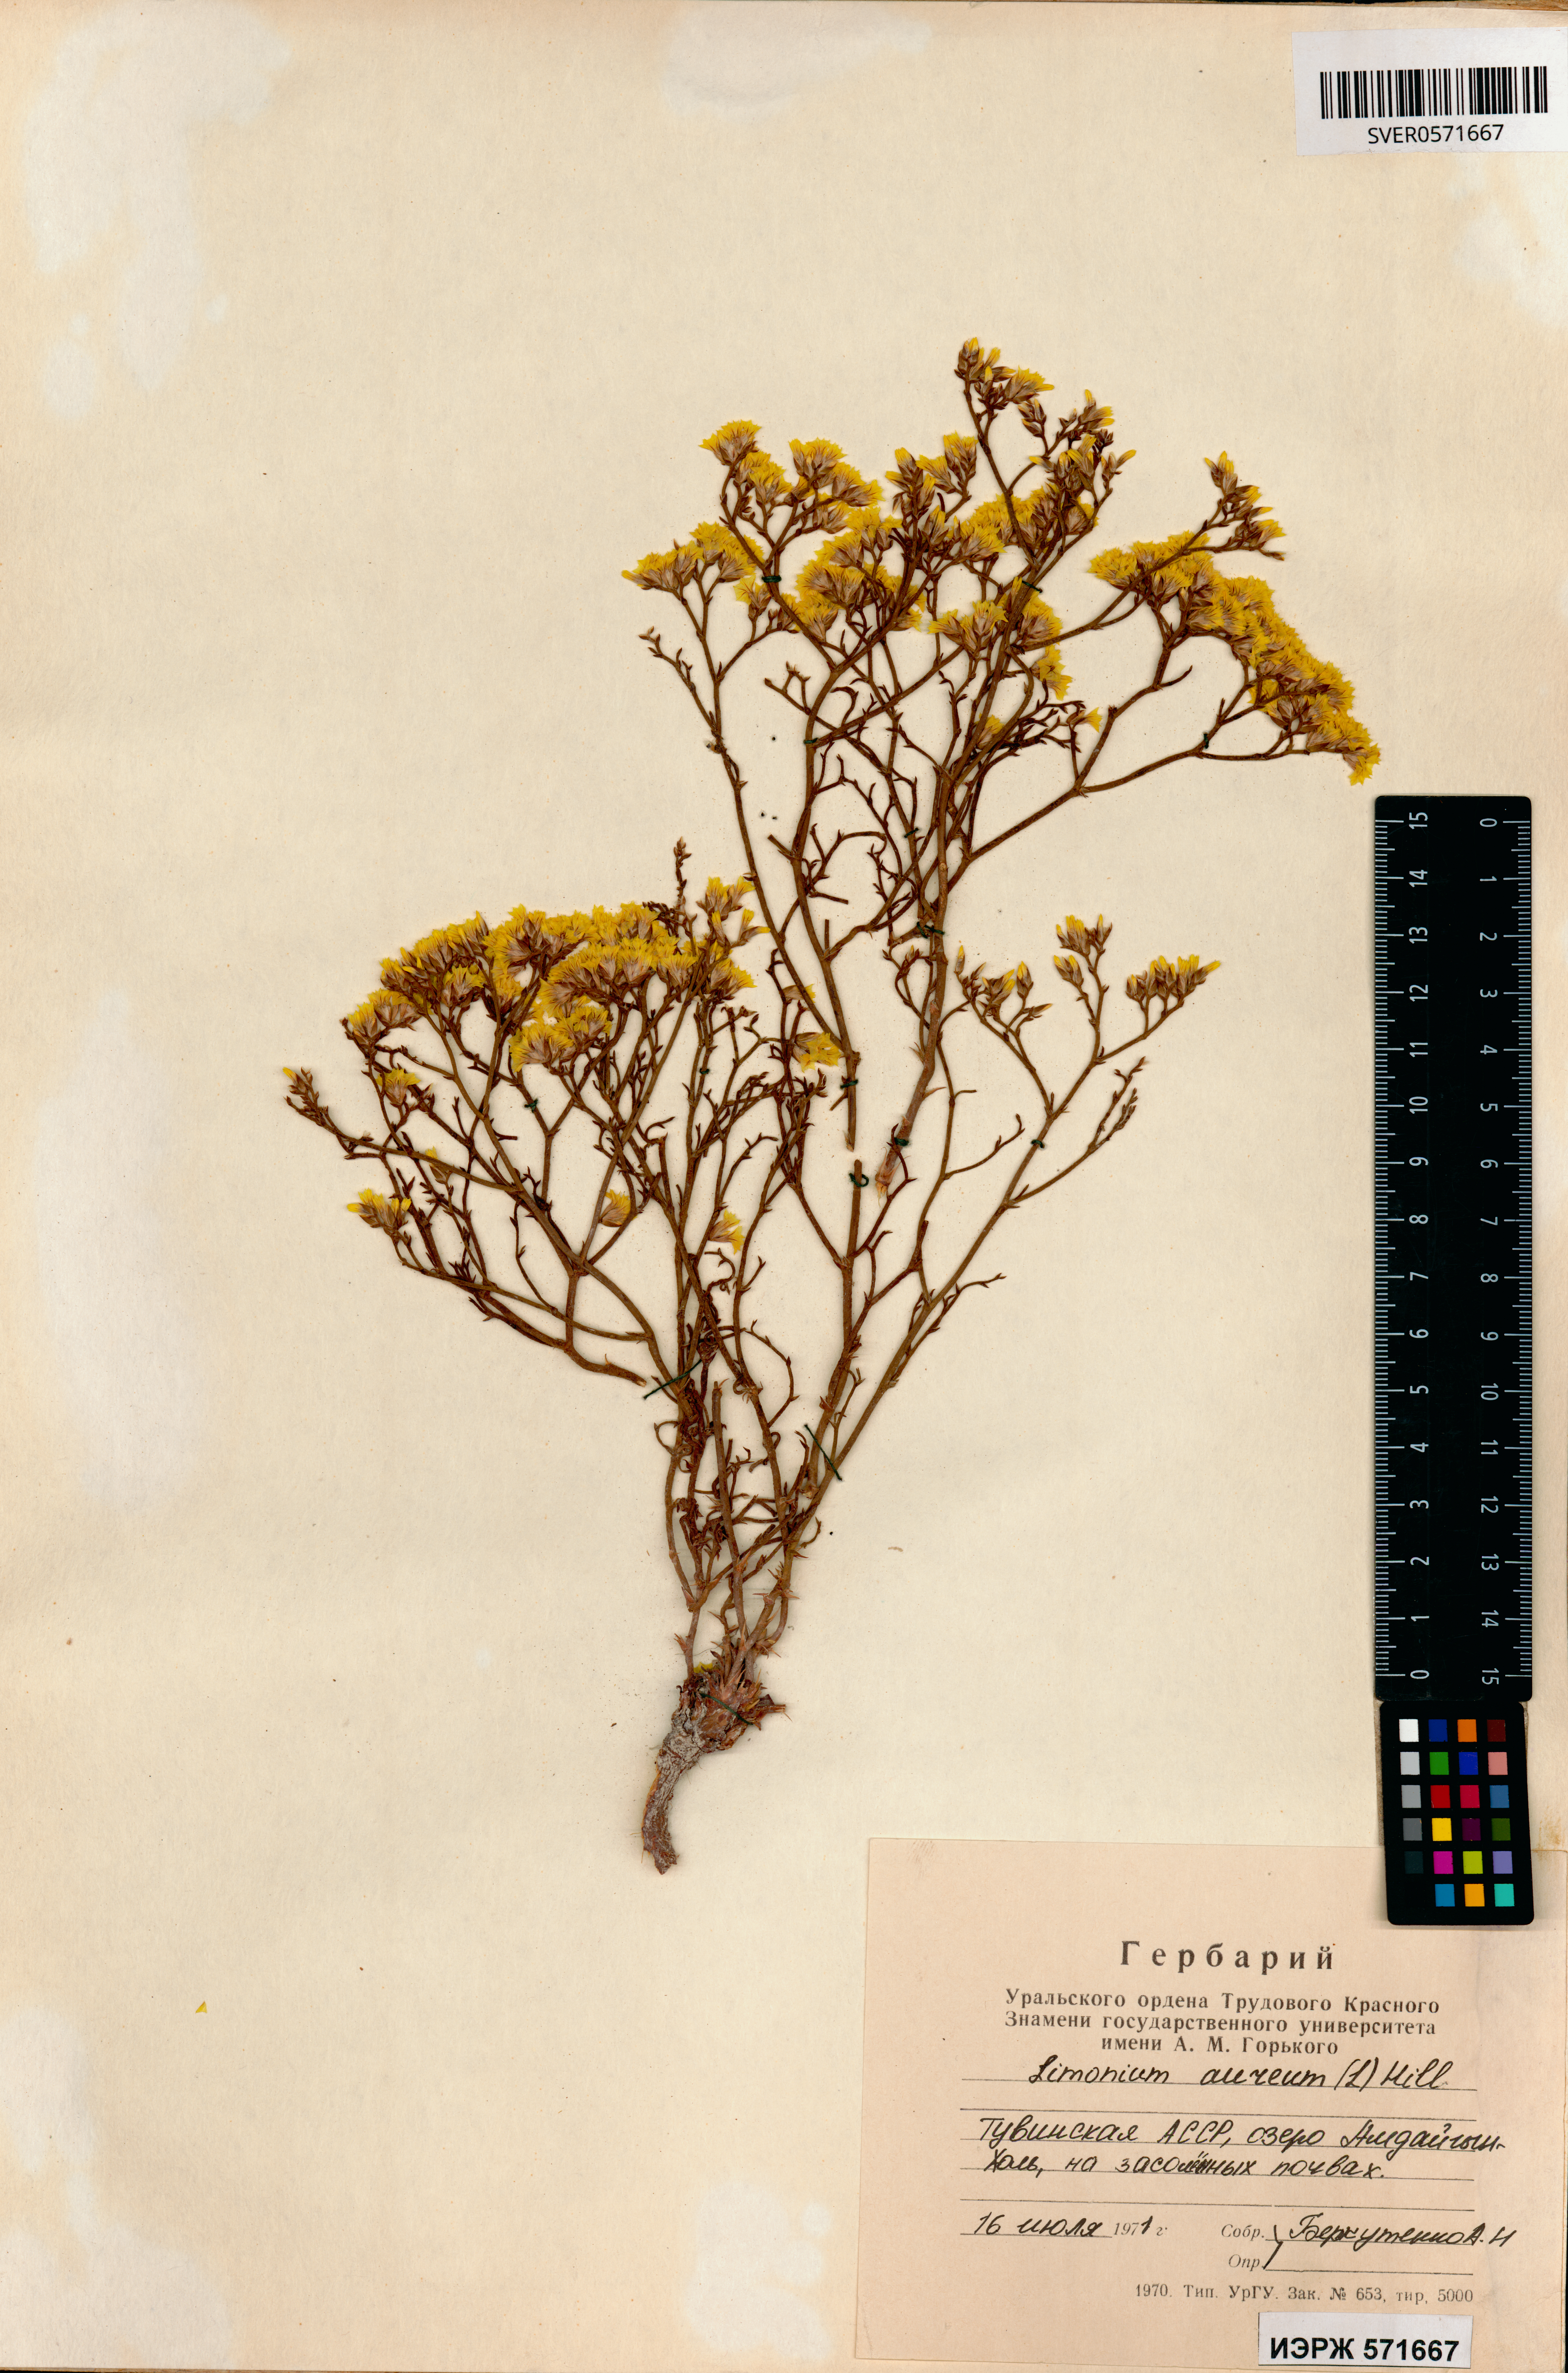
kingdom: Plantae
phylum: Tracheophyta
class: Magnoliopsida
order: Caryophyllales
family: Plumbaginaceae
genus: Limonium
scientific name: Limonium aureum
